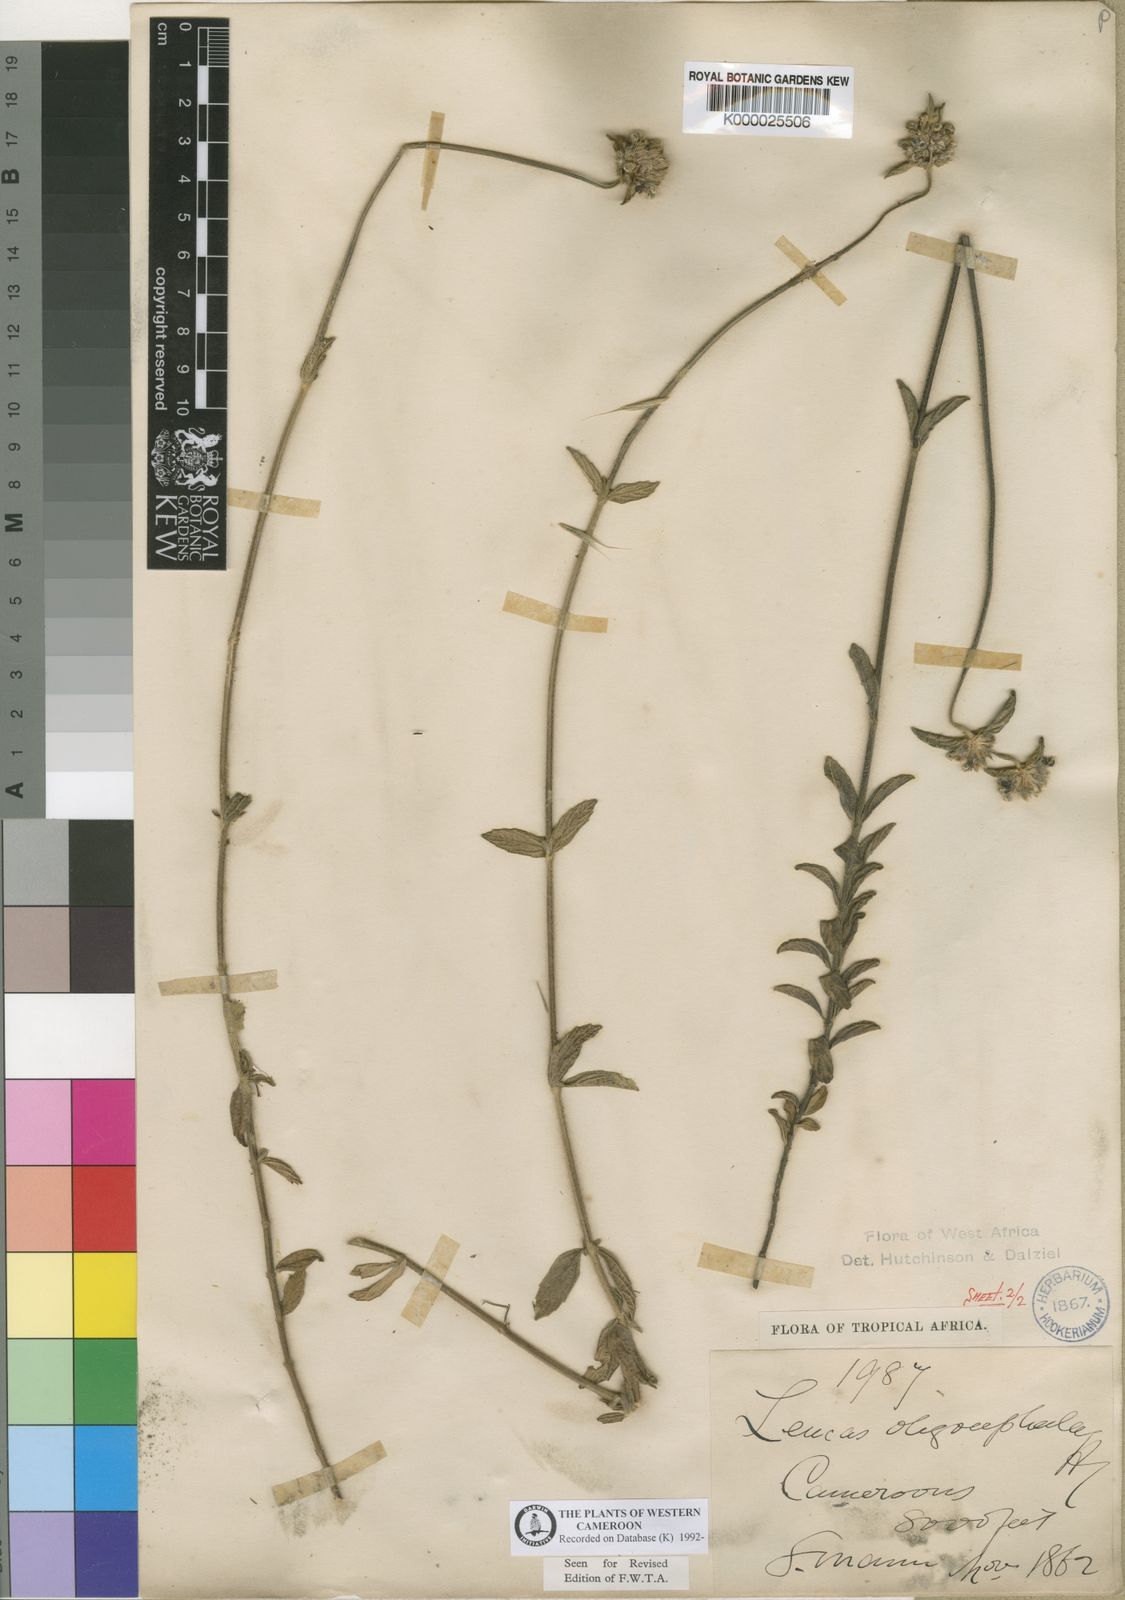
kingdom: Plantae
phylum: Tracheophyta
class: Magnoliopsida
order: Lamiales
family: Lamiaceae
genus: Leucas
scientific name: Leucas oligocephala
